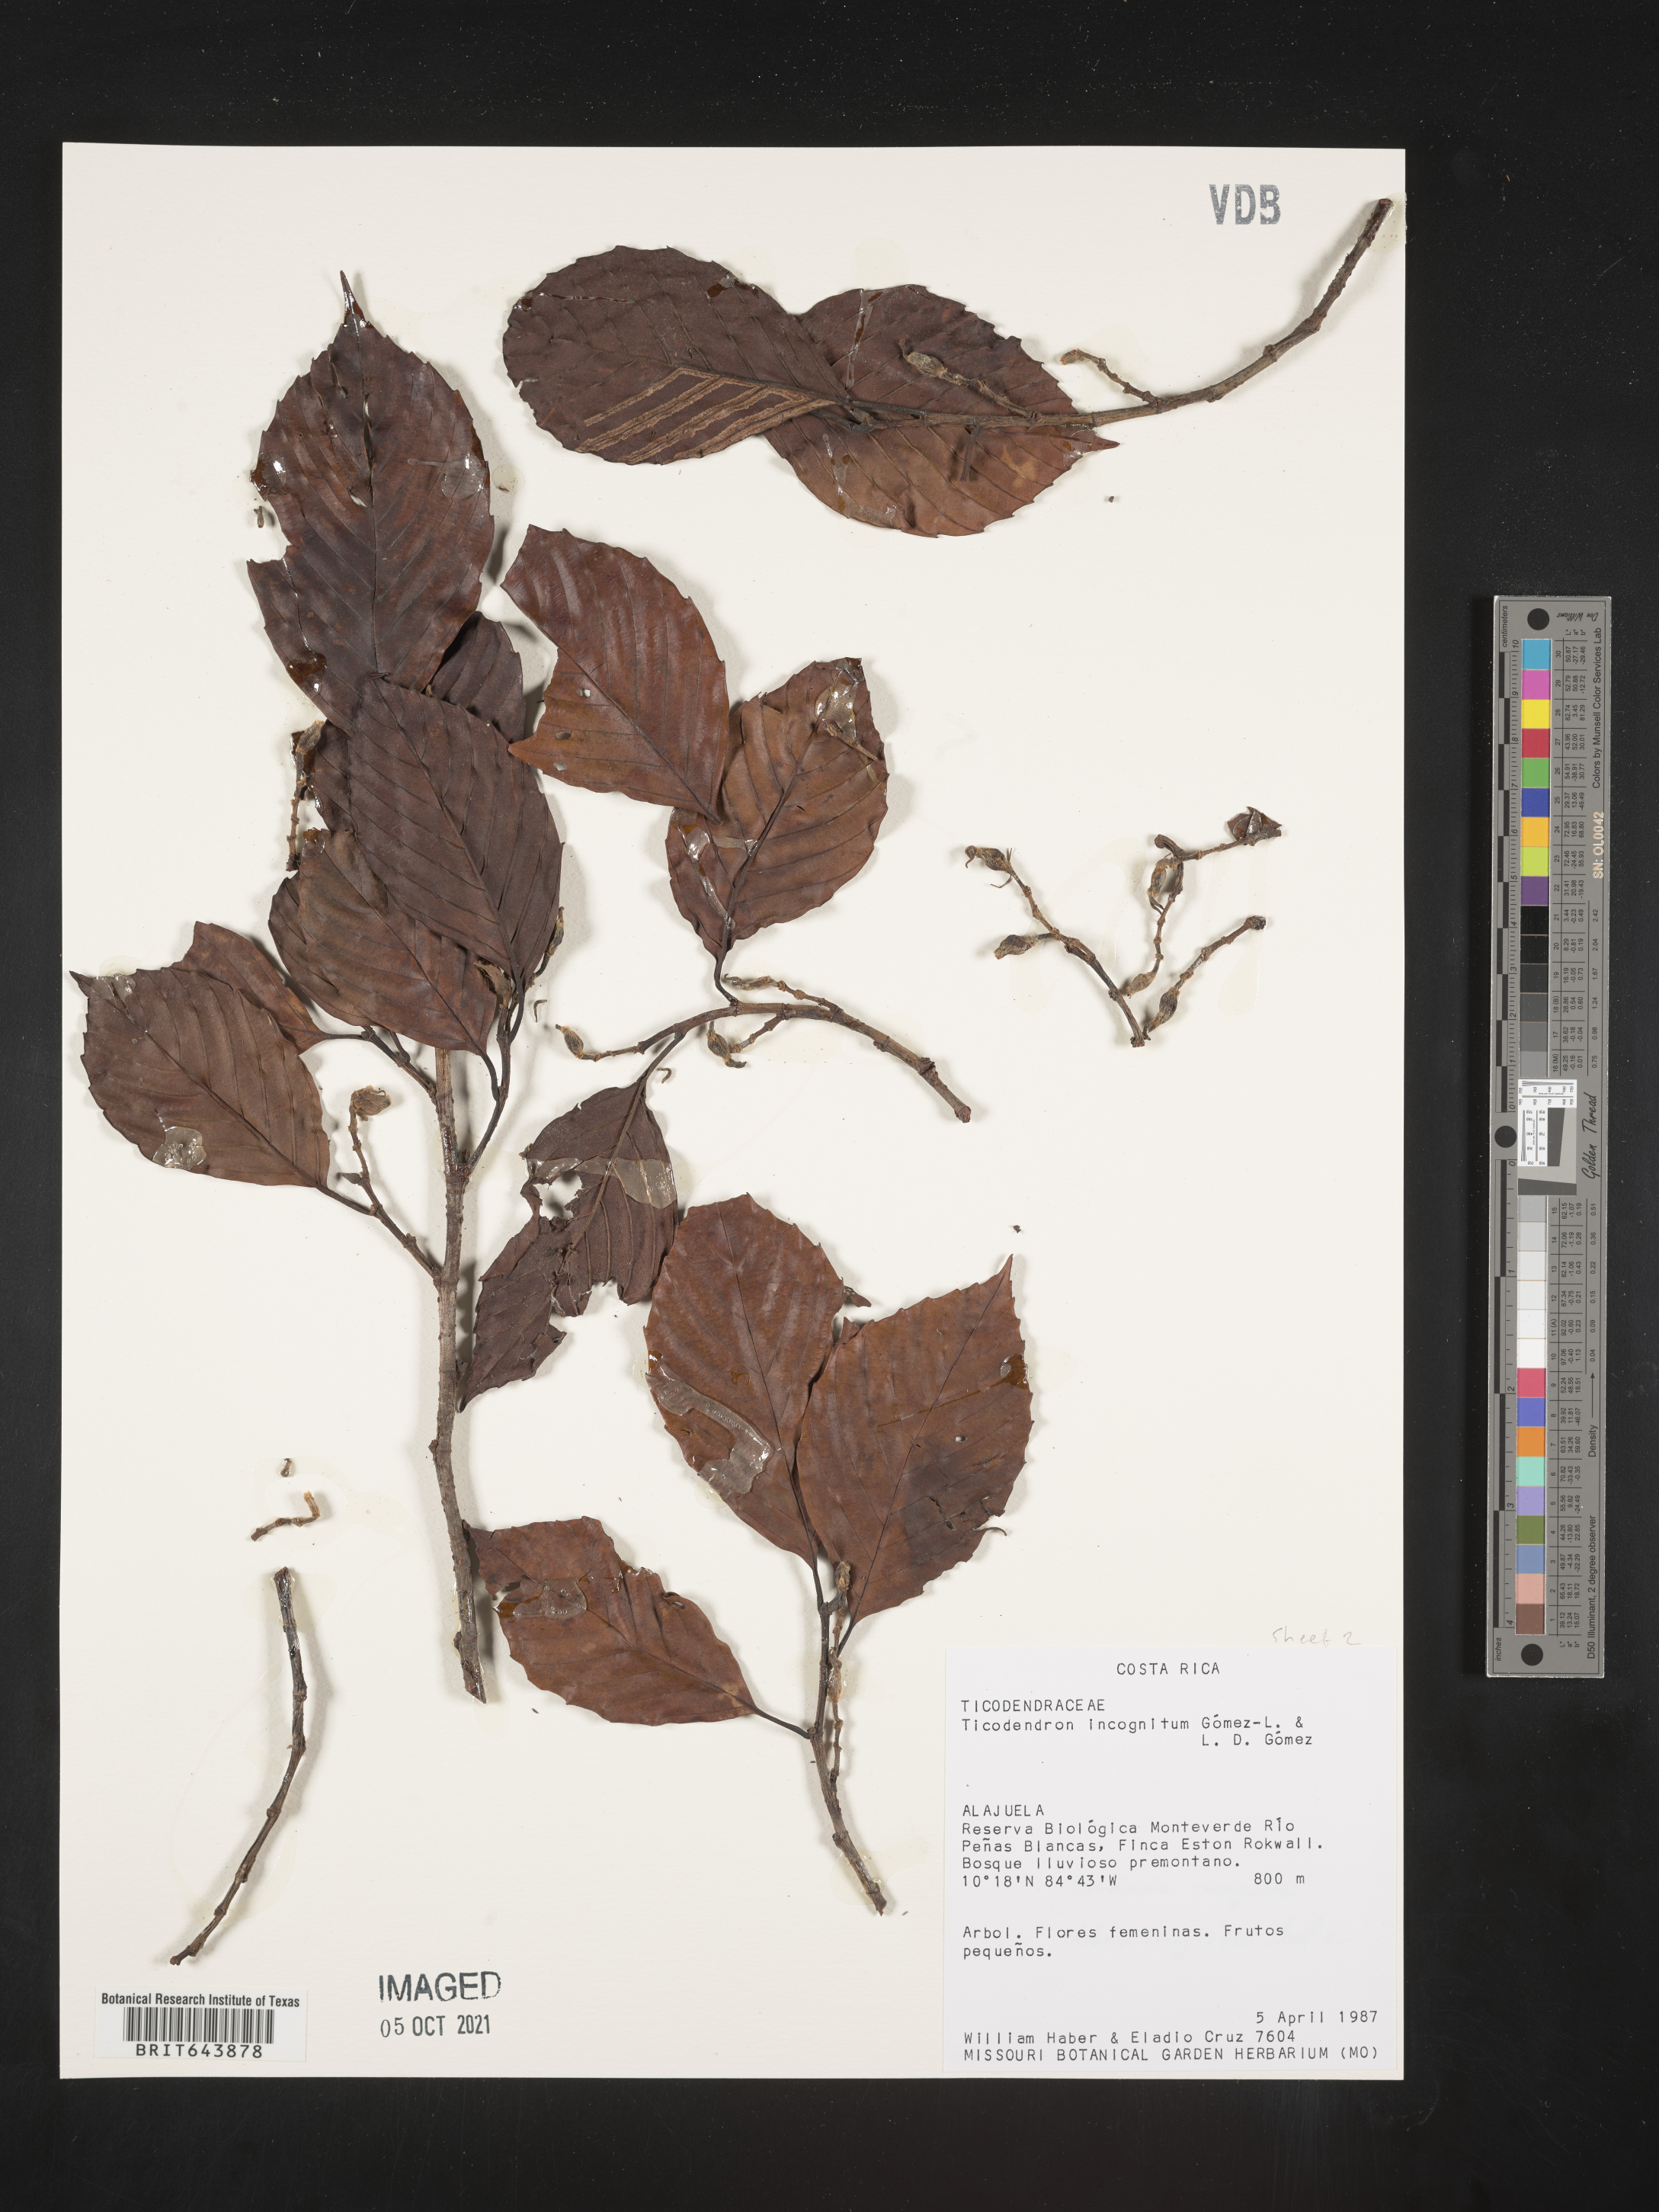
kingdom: Plantae
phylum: Tracheophyta
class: Magnoliopsida
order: Fagales
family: Ticodendraceae
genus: Ticodendron
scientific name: Ticodendron incognitum
